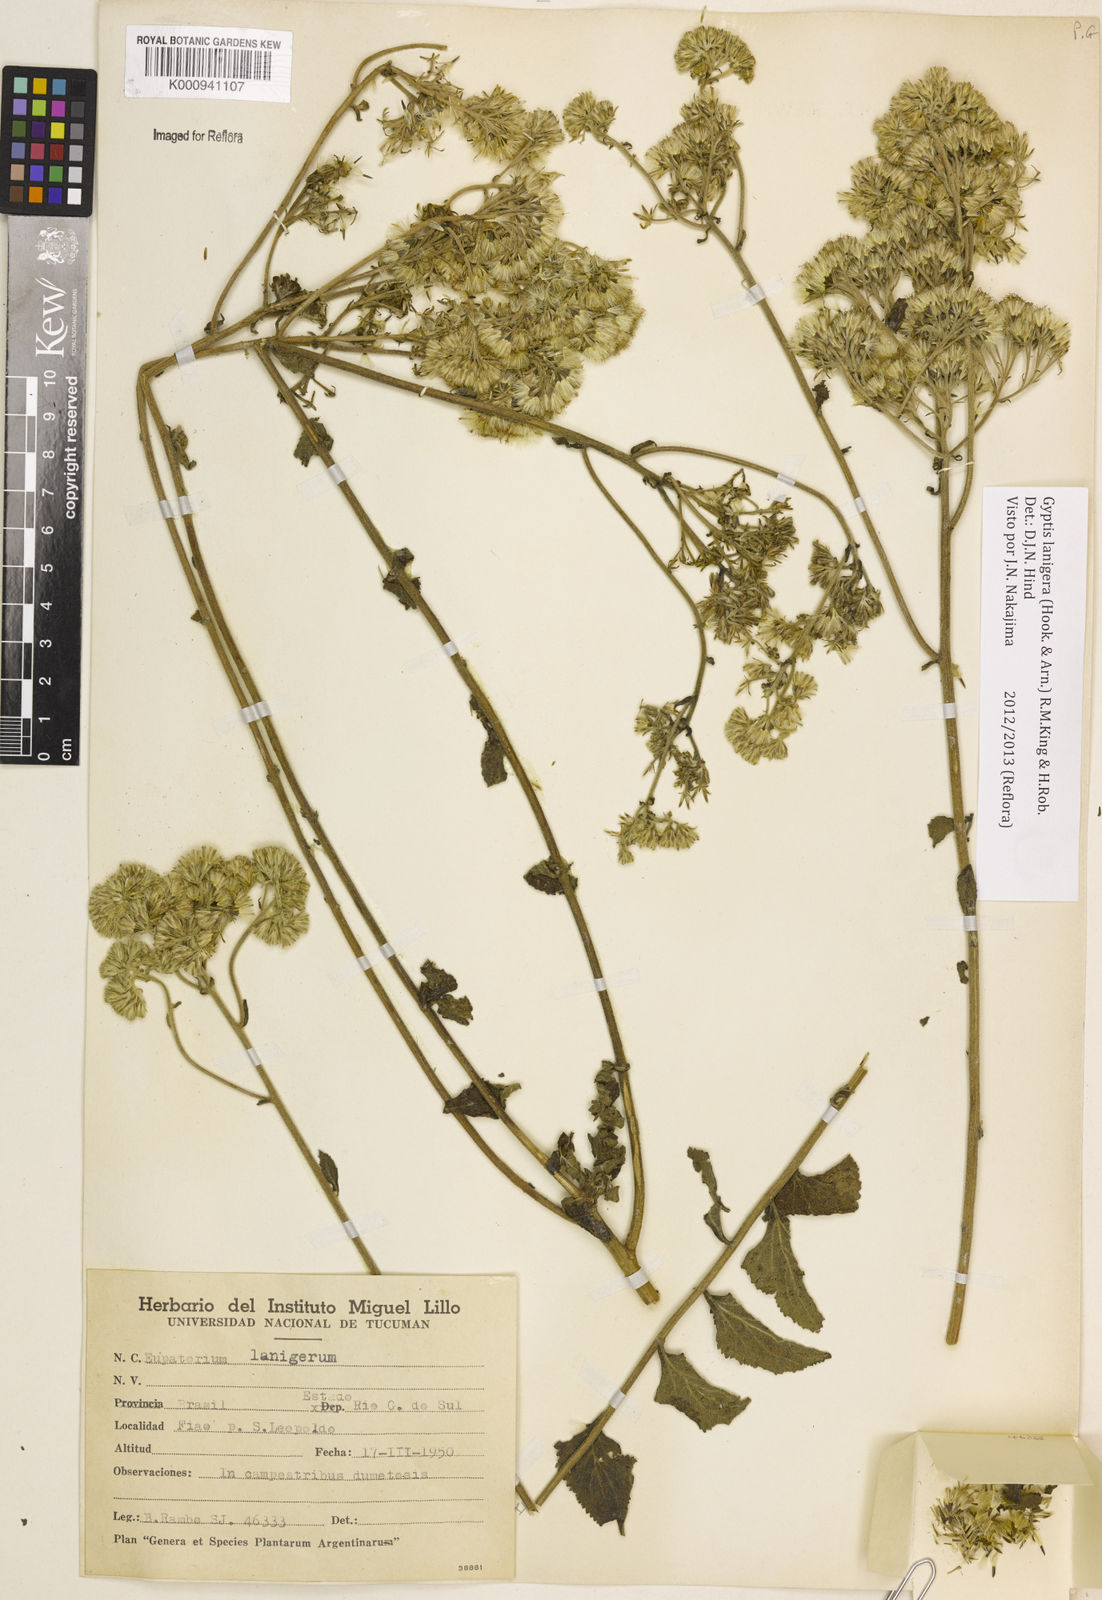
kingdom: Plantae
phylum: Tracheophyta
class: Magnoliopsida
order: Asterales
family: Asteraceae
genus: Gyptis
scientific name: Gyptis lanigera
